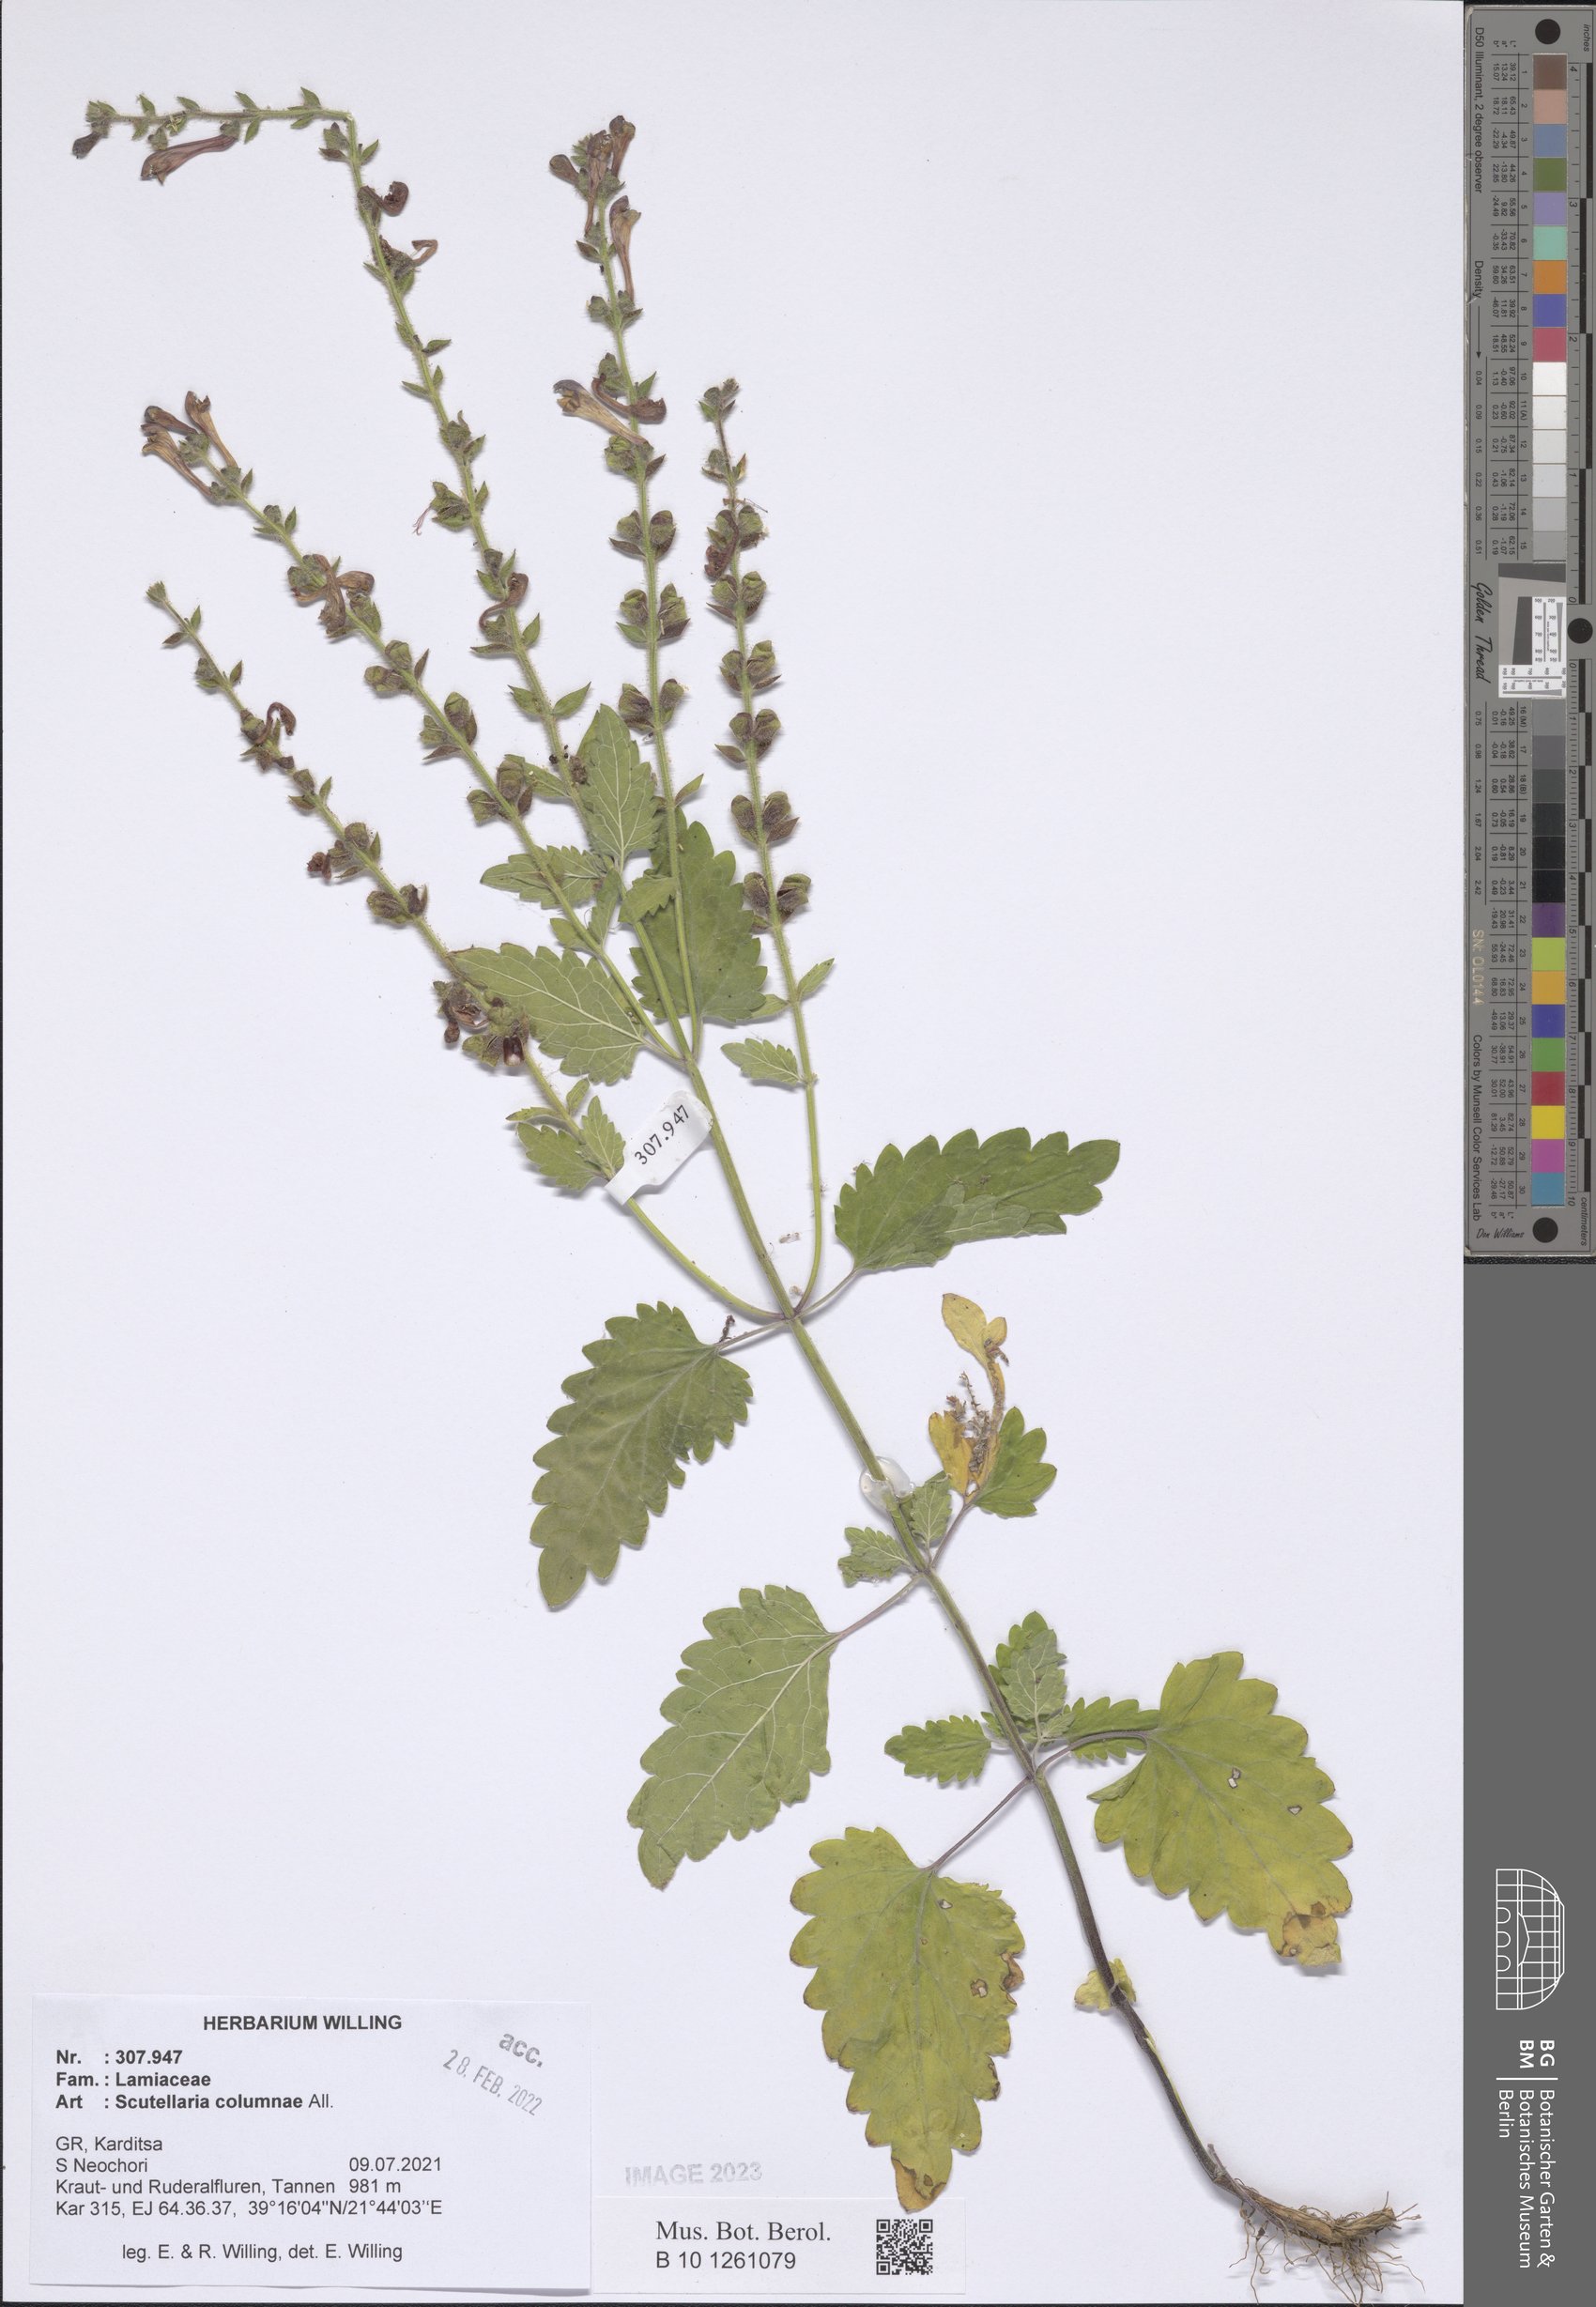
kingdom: Plantae
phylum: Tracheophyta
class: Magnoliopsida
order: Lamiales
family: Lamiaceae
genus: Scutellaria
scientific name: Scutellaria columnae
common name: Large skullcap
